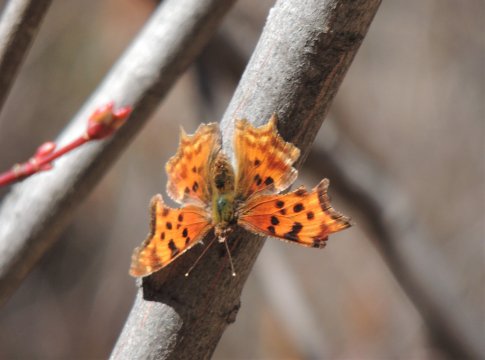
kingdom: Animalia
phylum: Arthropoda
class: Insecta
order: Lepidoptera
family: Nymphalidae
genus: Polygonia
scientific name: Polygonia satyrus
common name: Satyr Comma
